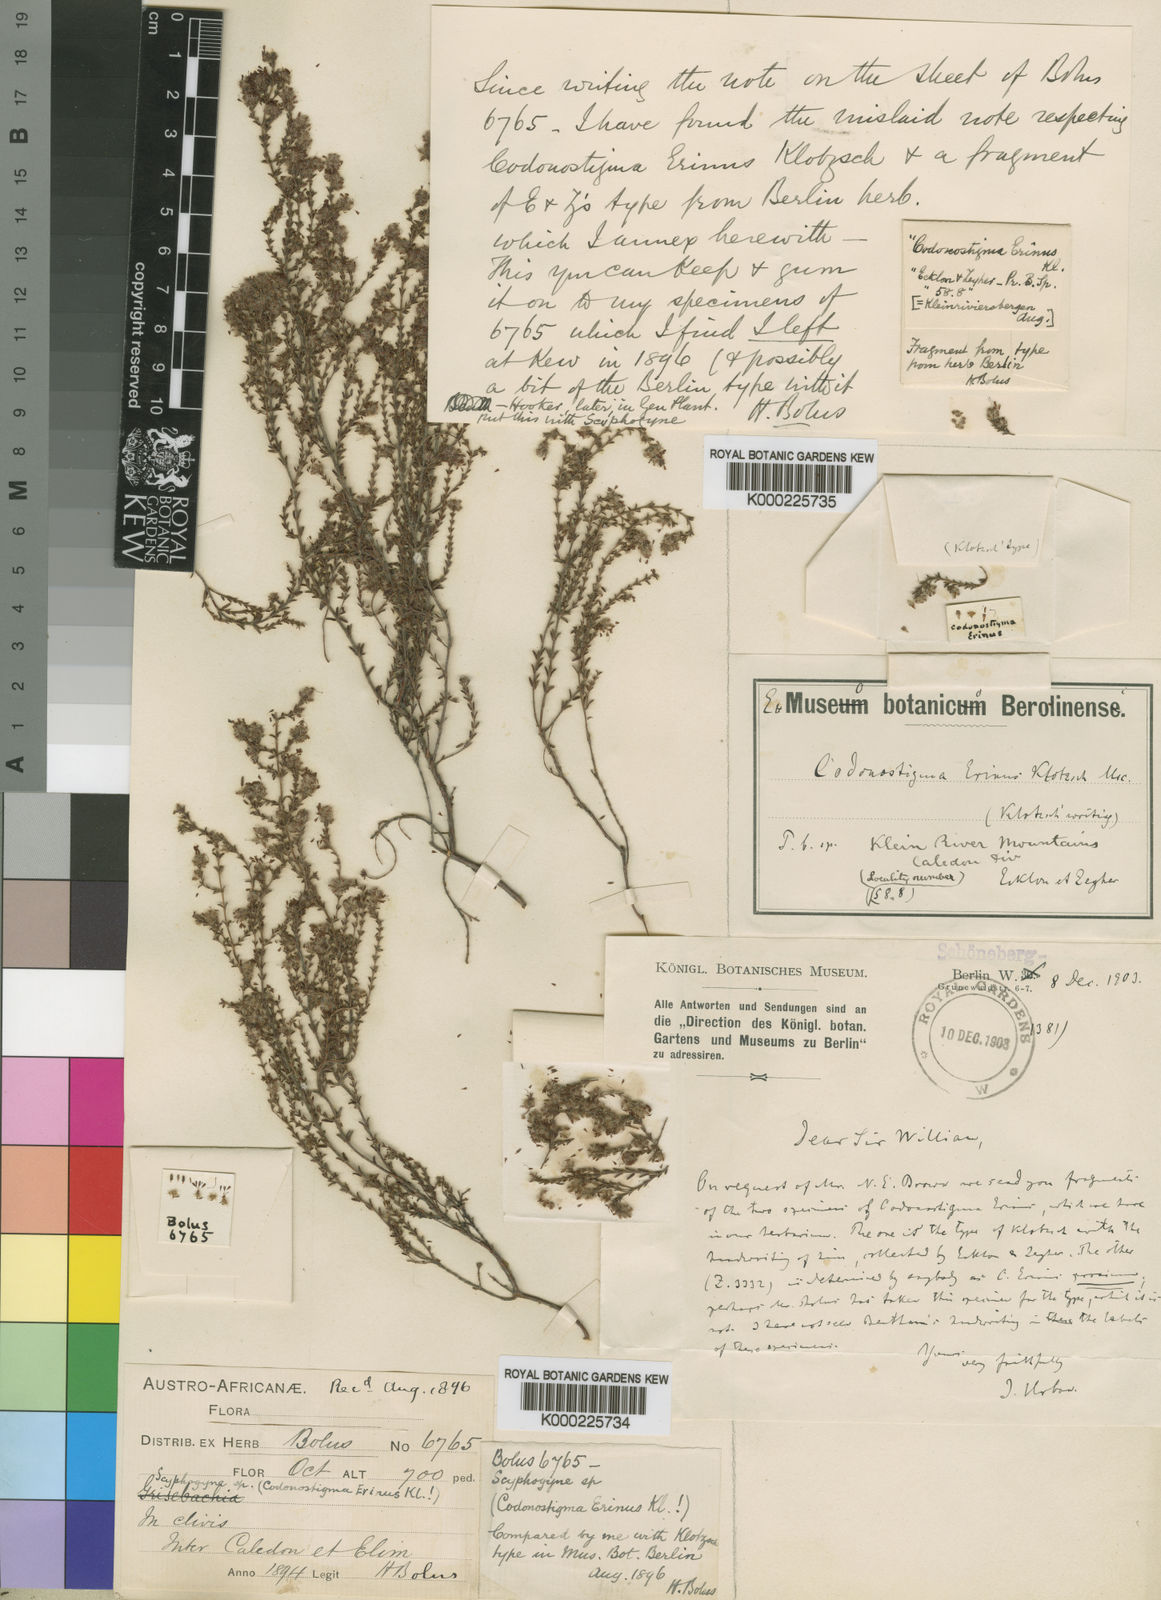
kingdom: Plantae
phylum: Tracheophyta
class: Magnoliopsida
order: Ericales
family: Ericaceae
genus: Erica
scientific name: Erica erinus
